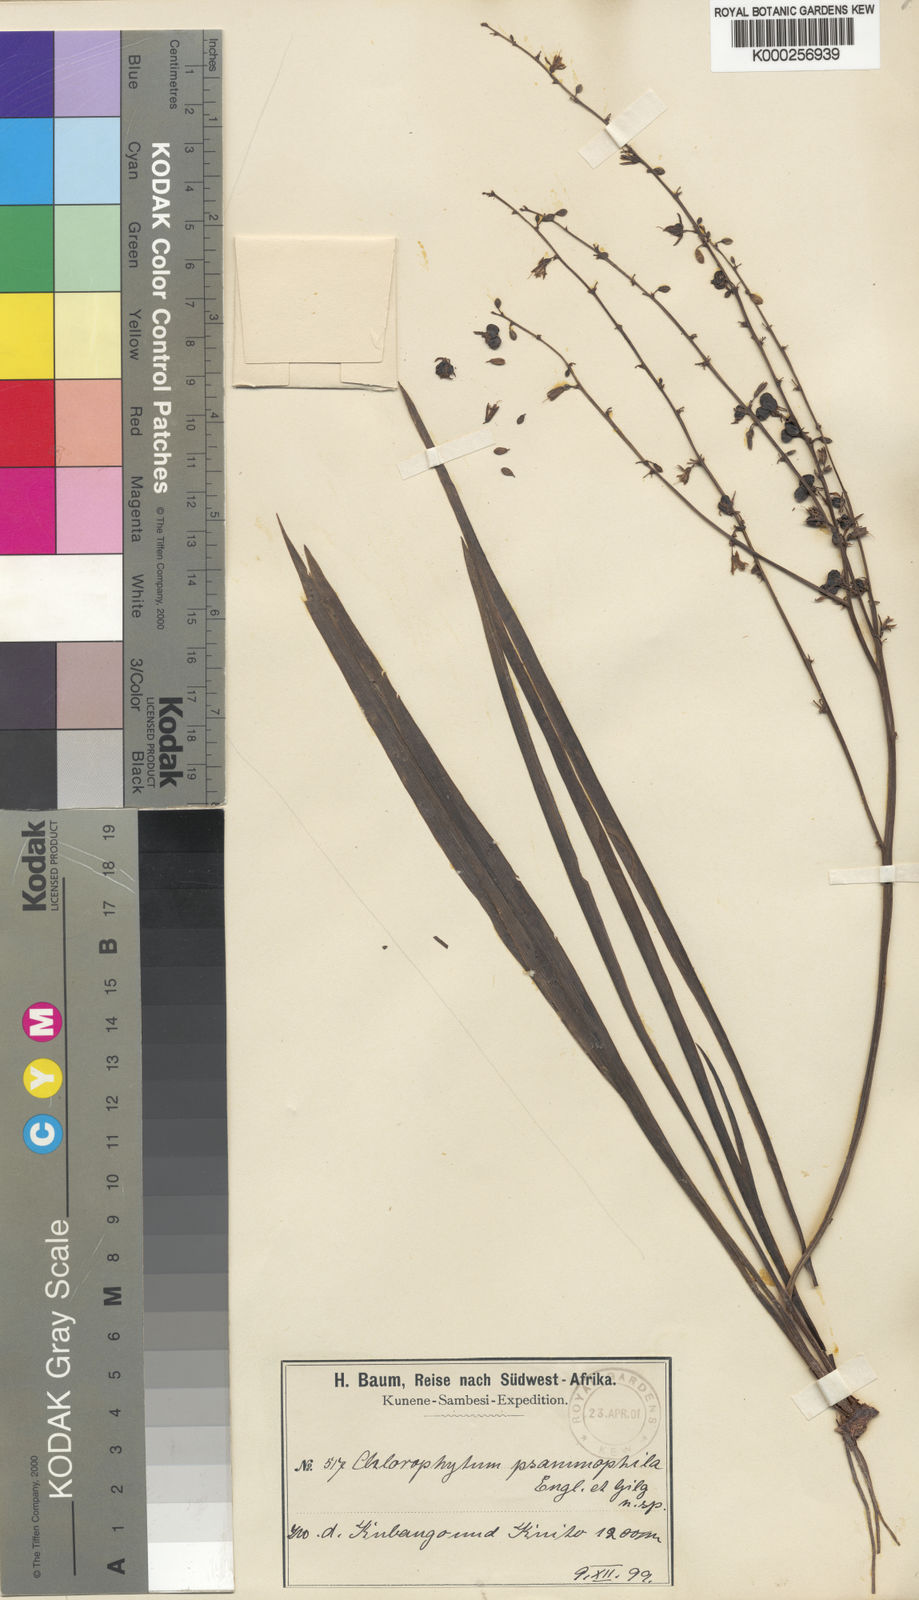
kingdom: Plantae
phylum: Tracheophyta
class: Liliopsida
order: Asparagales
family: Asparagaceae
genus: Chlorophytum
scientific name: Chlorophytum gallabatense
